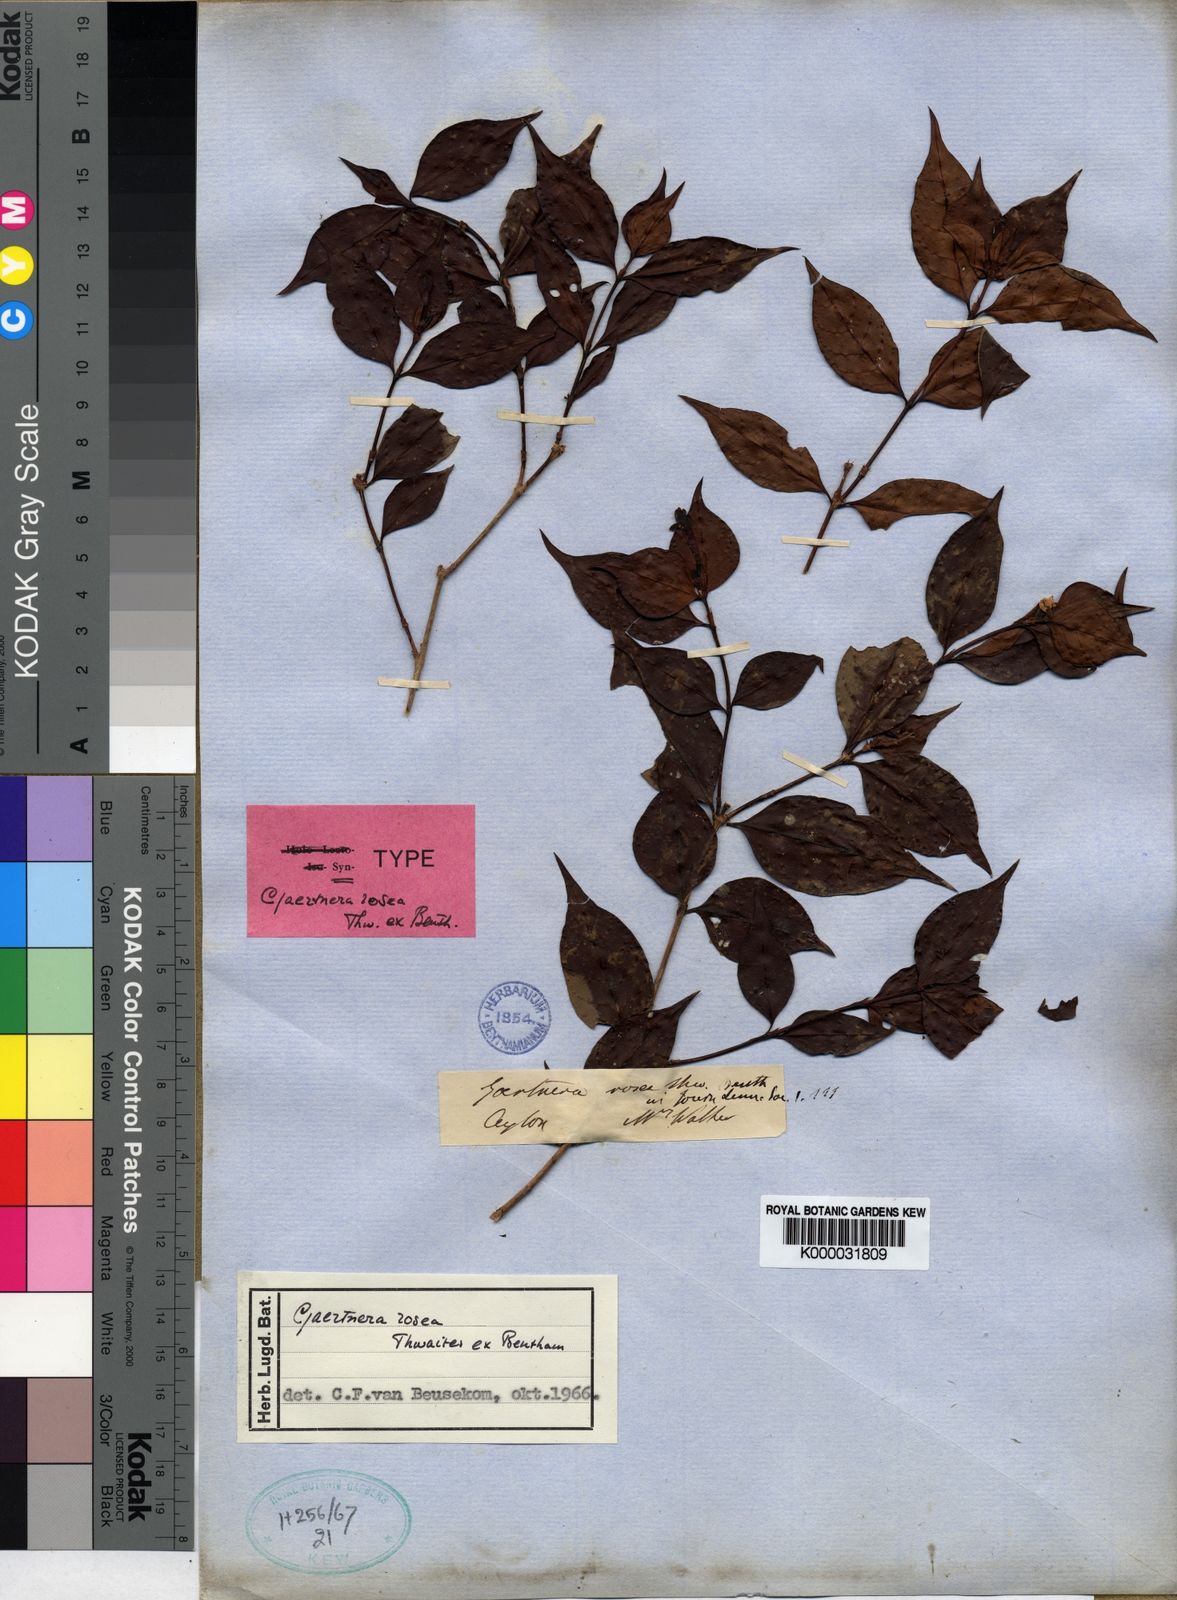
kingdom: Plantae
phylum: Tracheophyta
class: Magnoliopsida
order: Gentianales
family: Rubiaceae
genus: Gaertnera
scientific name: Gaertnera rosea
